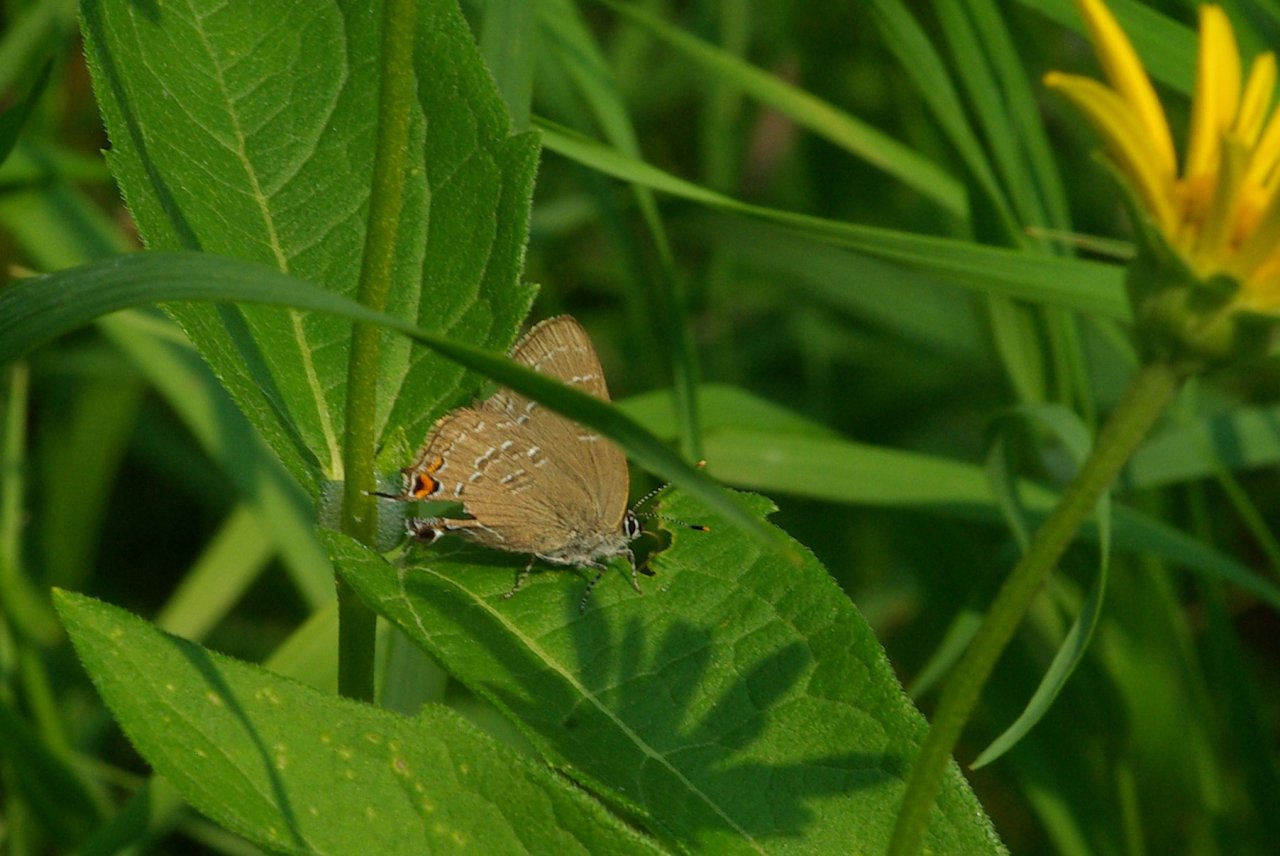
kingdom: Animalia
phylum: Arthropoda
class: Insecta
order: Lepidoptera
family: Lycaenidae
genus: Satyrium
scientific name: Satyrium edwardsii
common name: Edwards' Hairstreak
